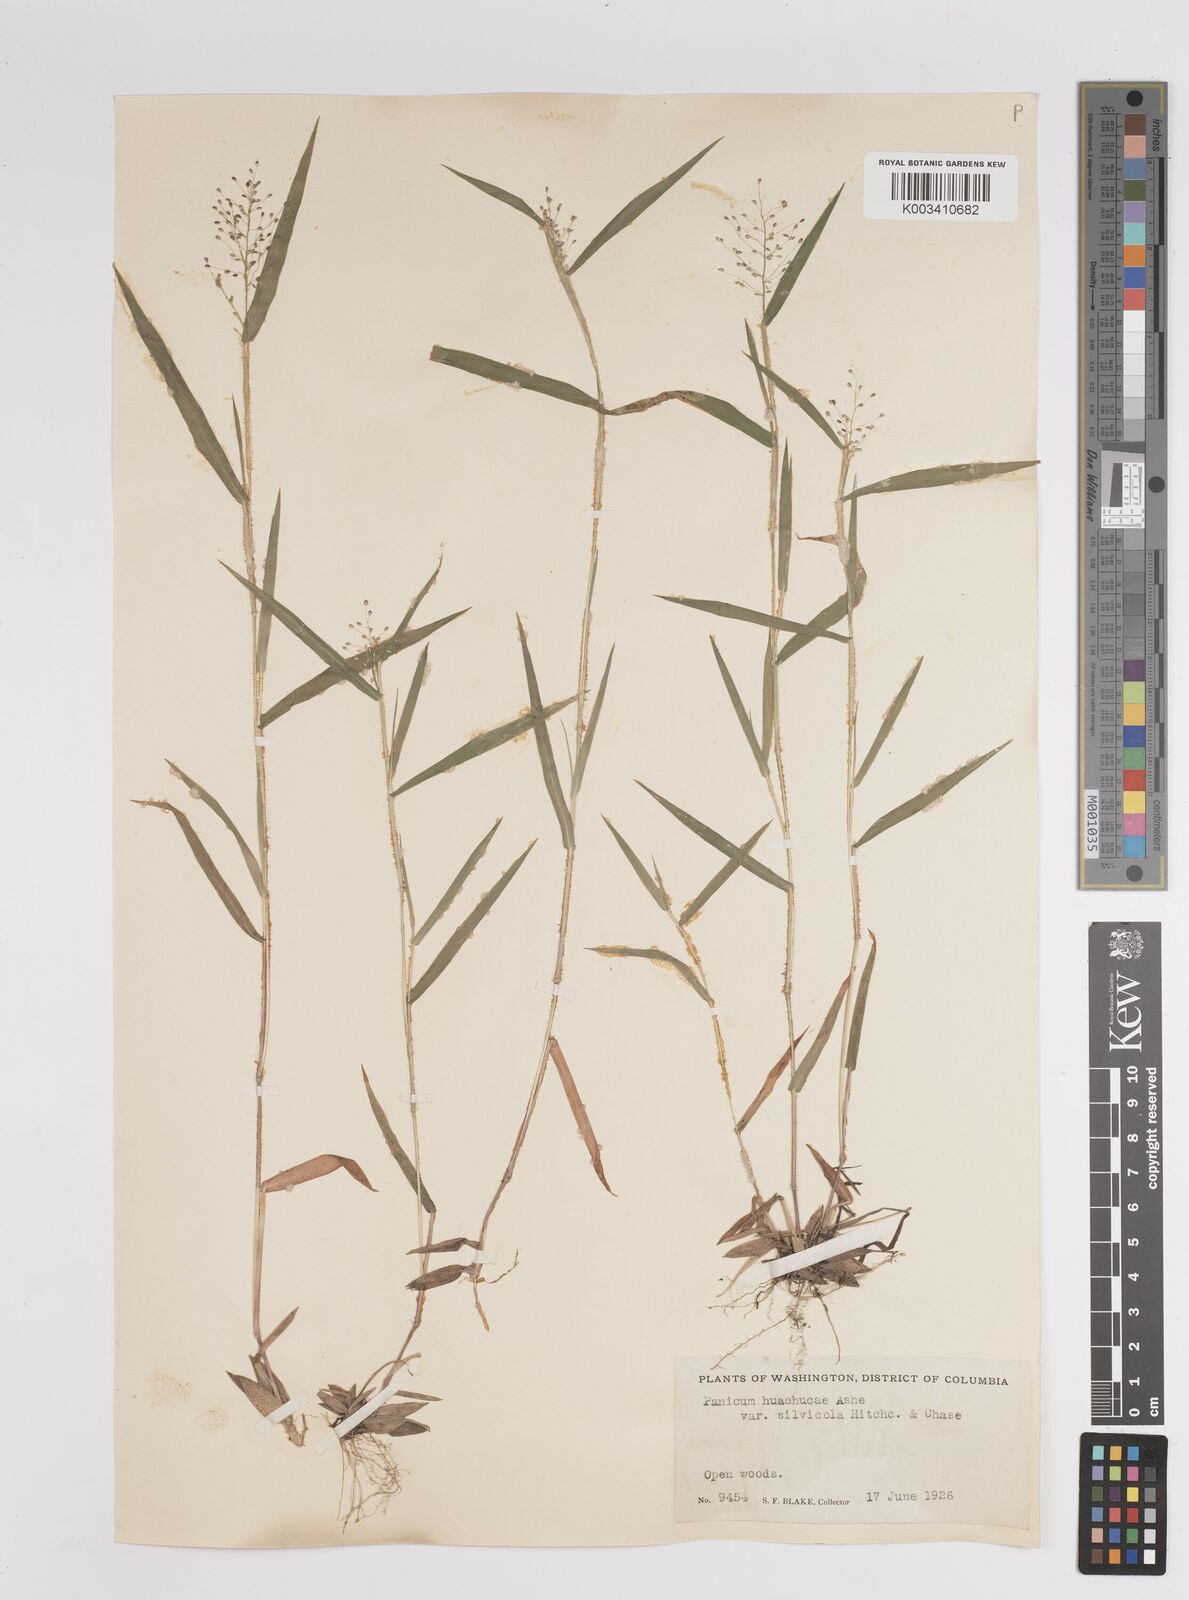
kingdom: Plantae
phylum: Tracheophyta
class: Liliopsida
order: Poales
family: Poaceae
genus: Dichanthelium
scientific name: Dichanthelium lanuginosum
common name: Woolly panicgrass
